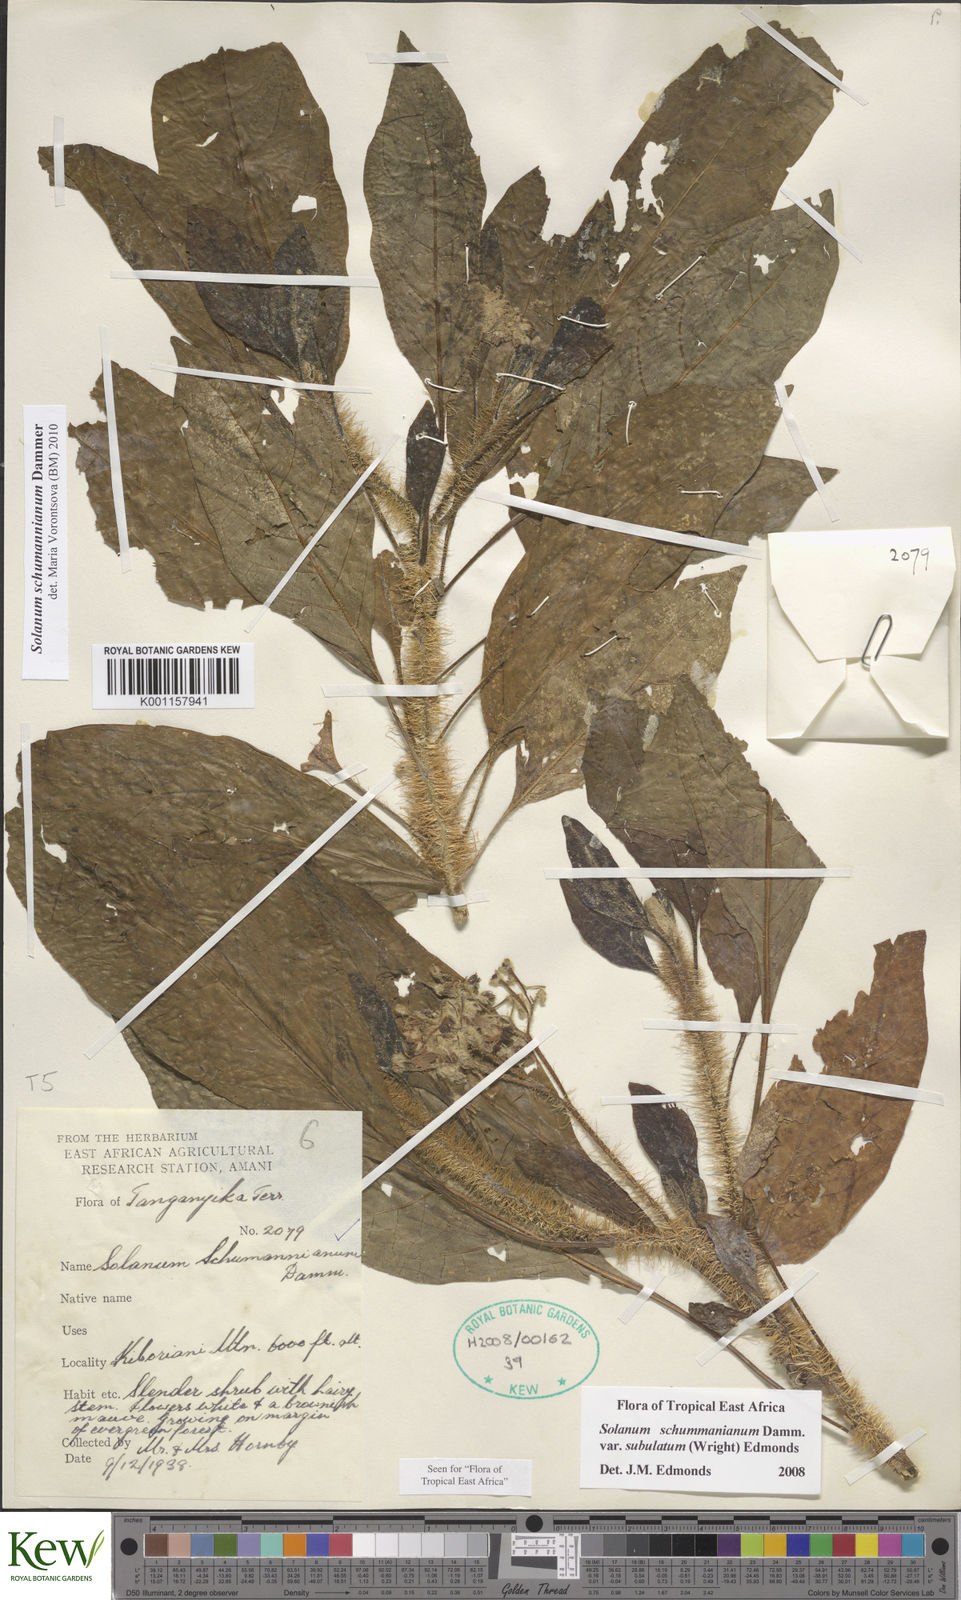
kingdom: Plantae
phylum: Tracheophyta
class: Magnoliopsida
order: Solanales
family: Solanaceae
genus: Solanum
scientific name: Solanum schumannianum
